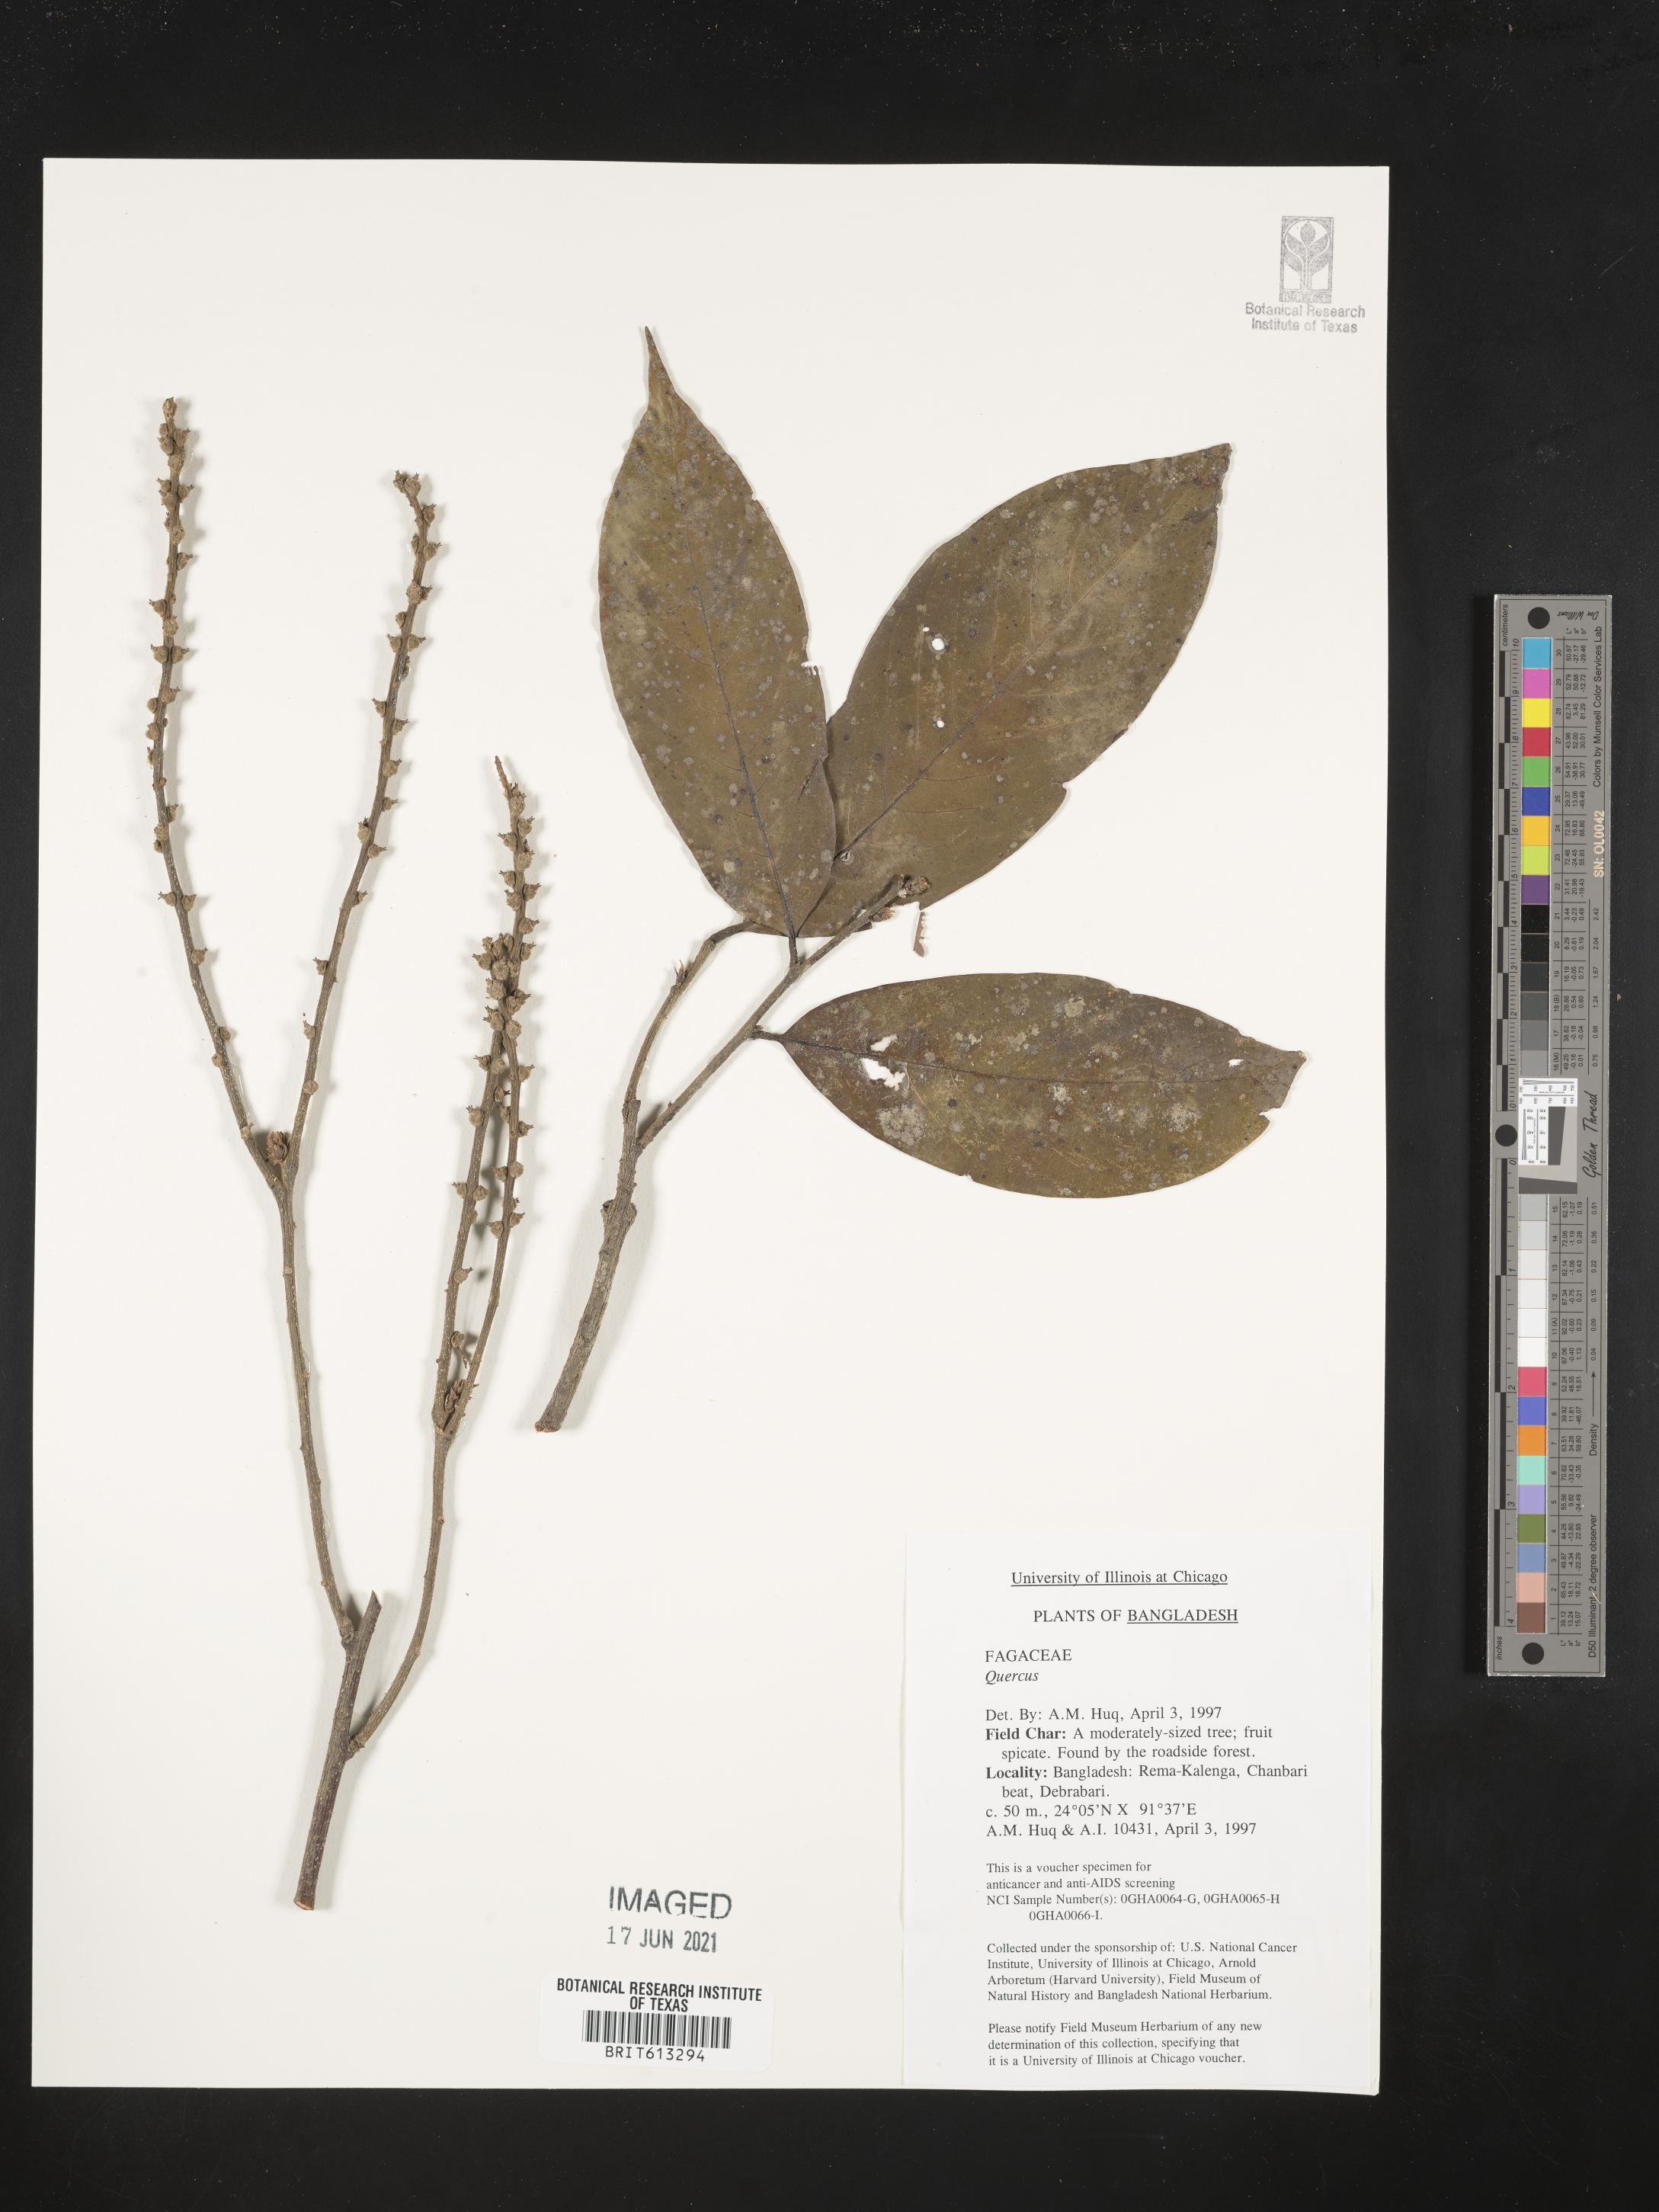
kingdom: Plantae
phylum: Tracheophyta
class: Magnoliopsida
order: Fagales
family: Fagaceae
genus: Quercus
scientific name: Quercus
